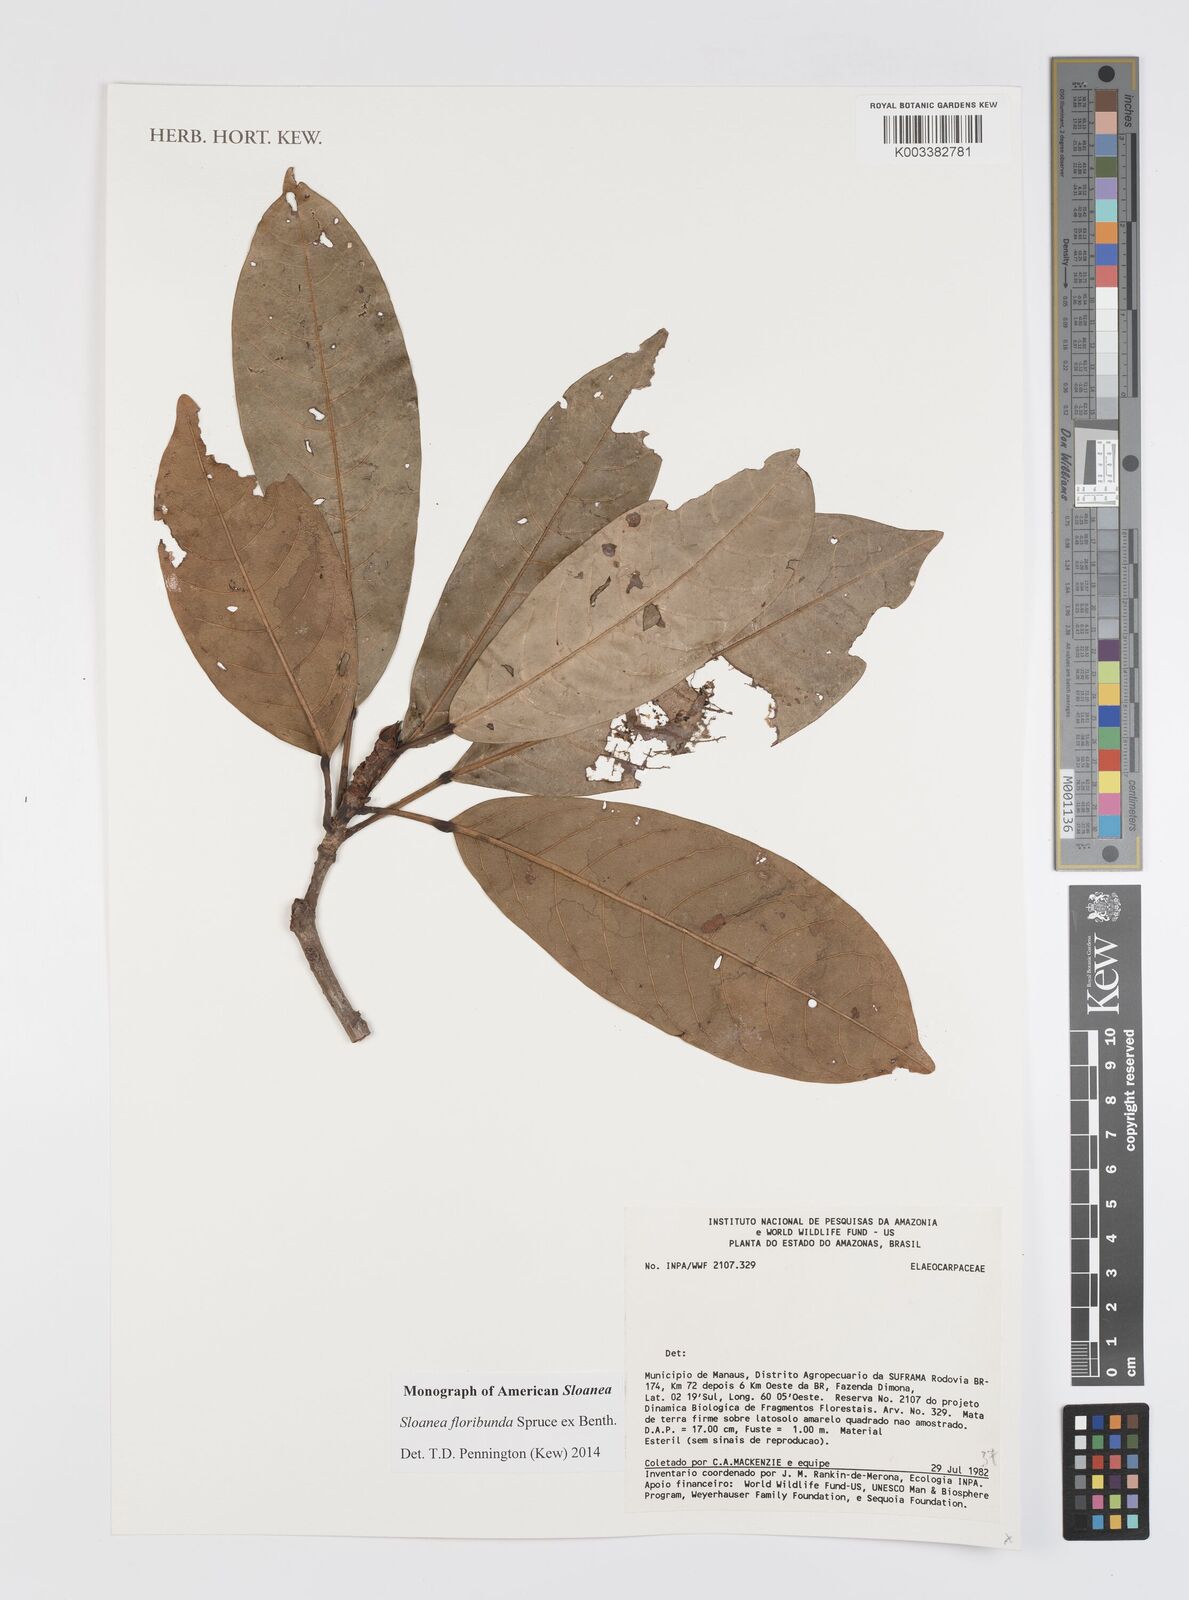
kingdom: Plantae
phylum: Tracheophyta
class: Magnoliopsida
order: Oxalidales
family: Elaeocarpaceae
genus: Sloanea
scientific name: Sloanea floribunda
